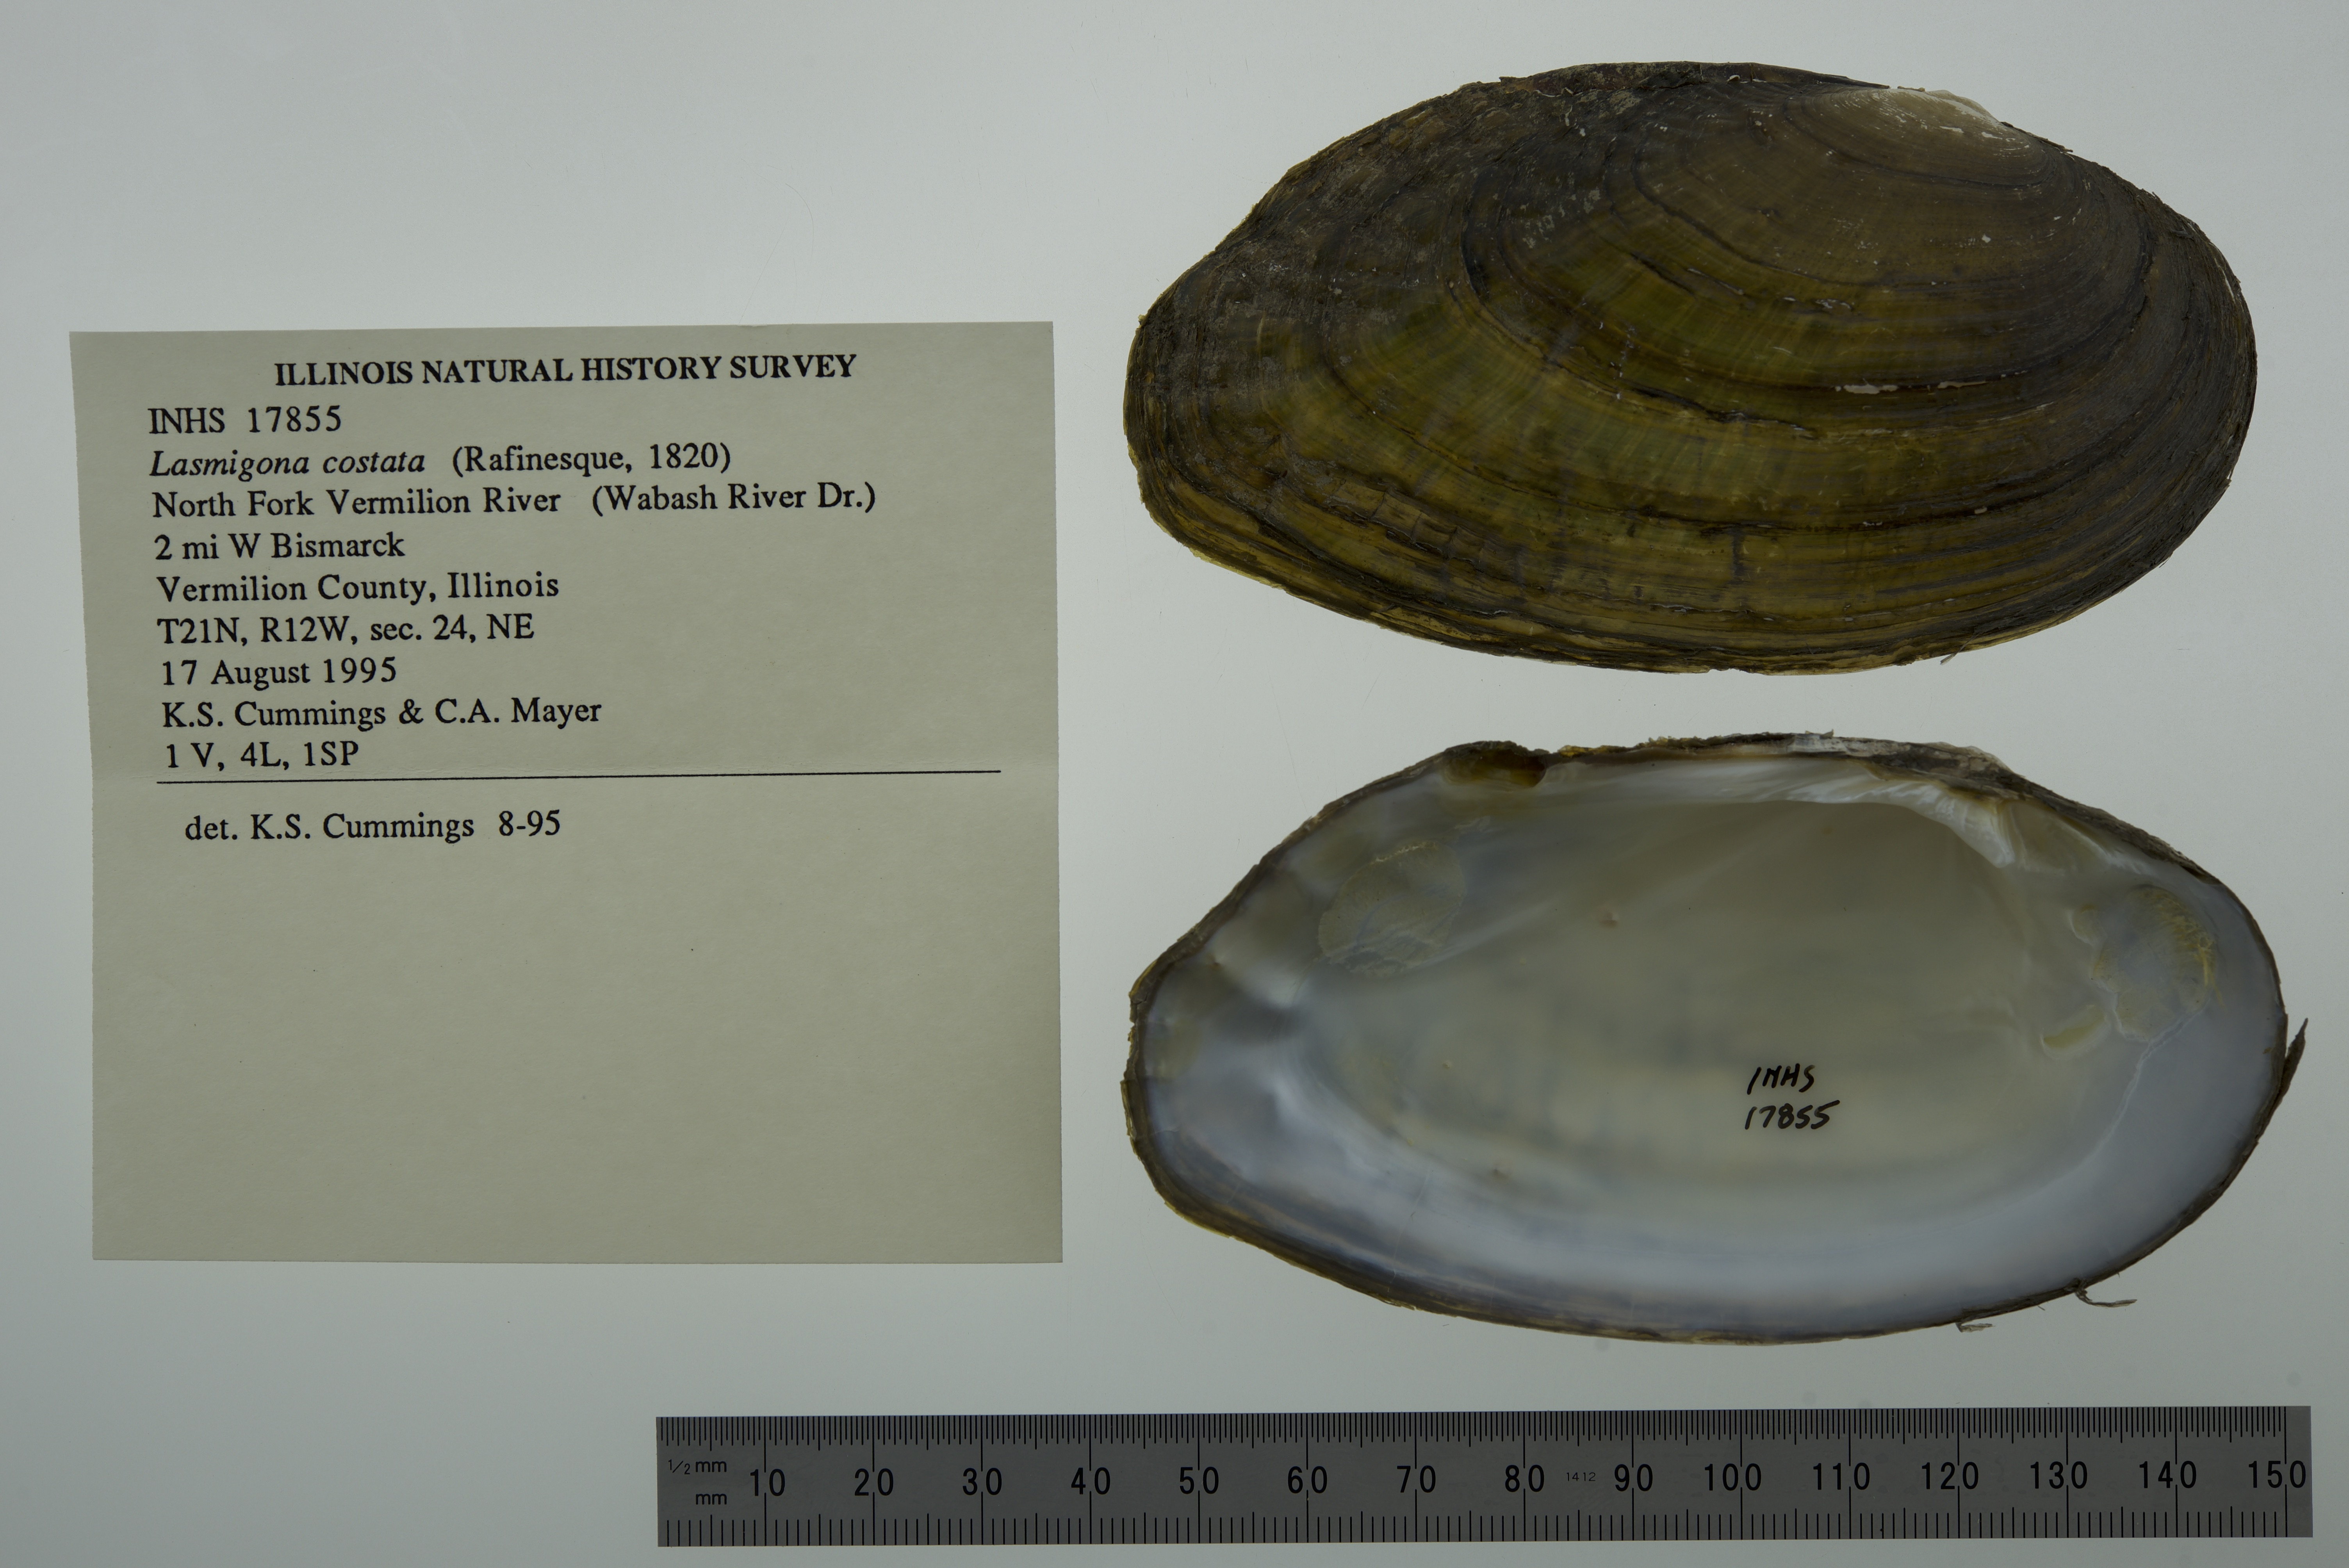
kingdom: Animalia
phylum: Mollusca
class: Bivalvia
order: Unionida
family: Unionidae
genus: Lasmigona
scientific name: Lasmigona costata
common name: Flutedshell
